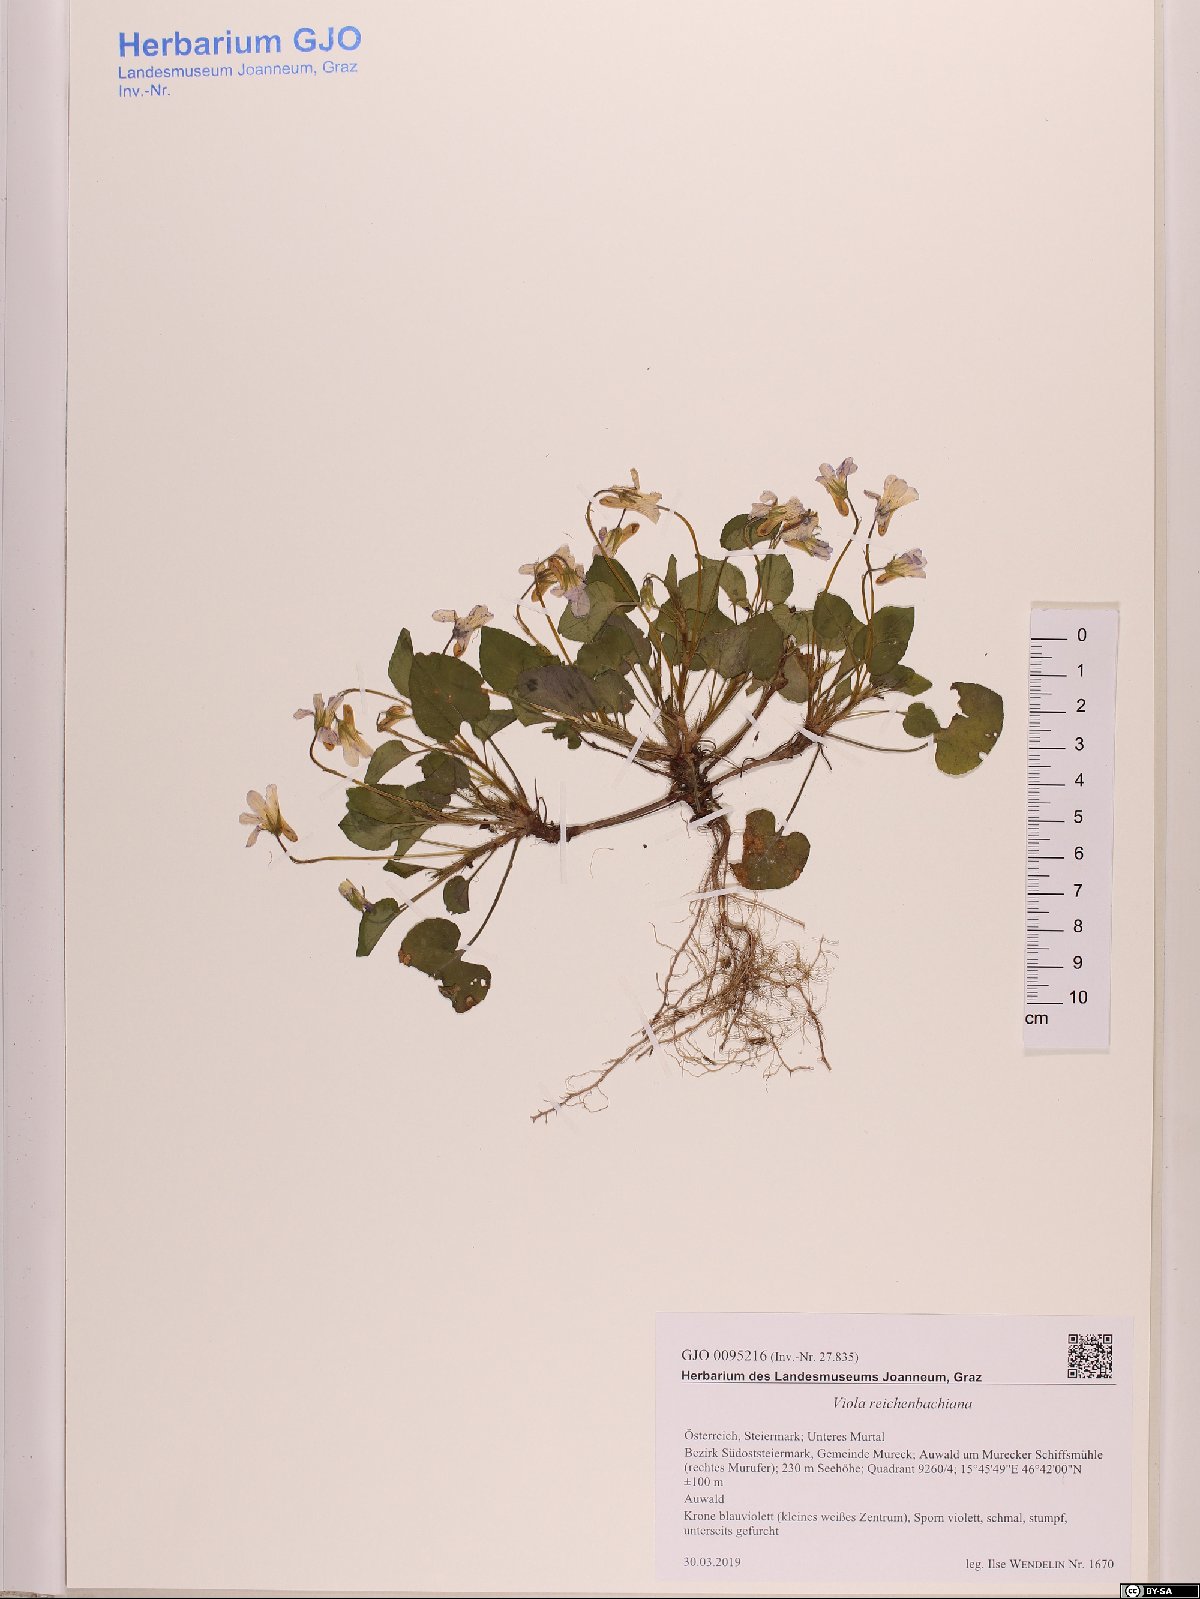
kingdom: Plantae
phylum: Tracheophyta
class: Magnoliopsida
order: Malpighiales
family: Violaceae
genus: Viola
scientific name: Viola reichenbachiana
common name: Early dog-violet
